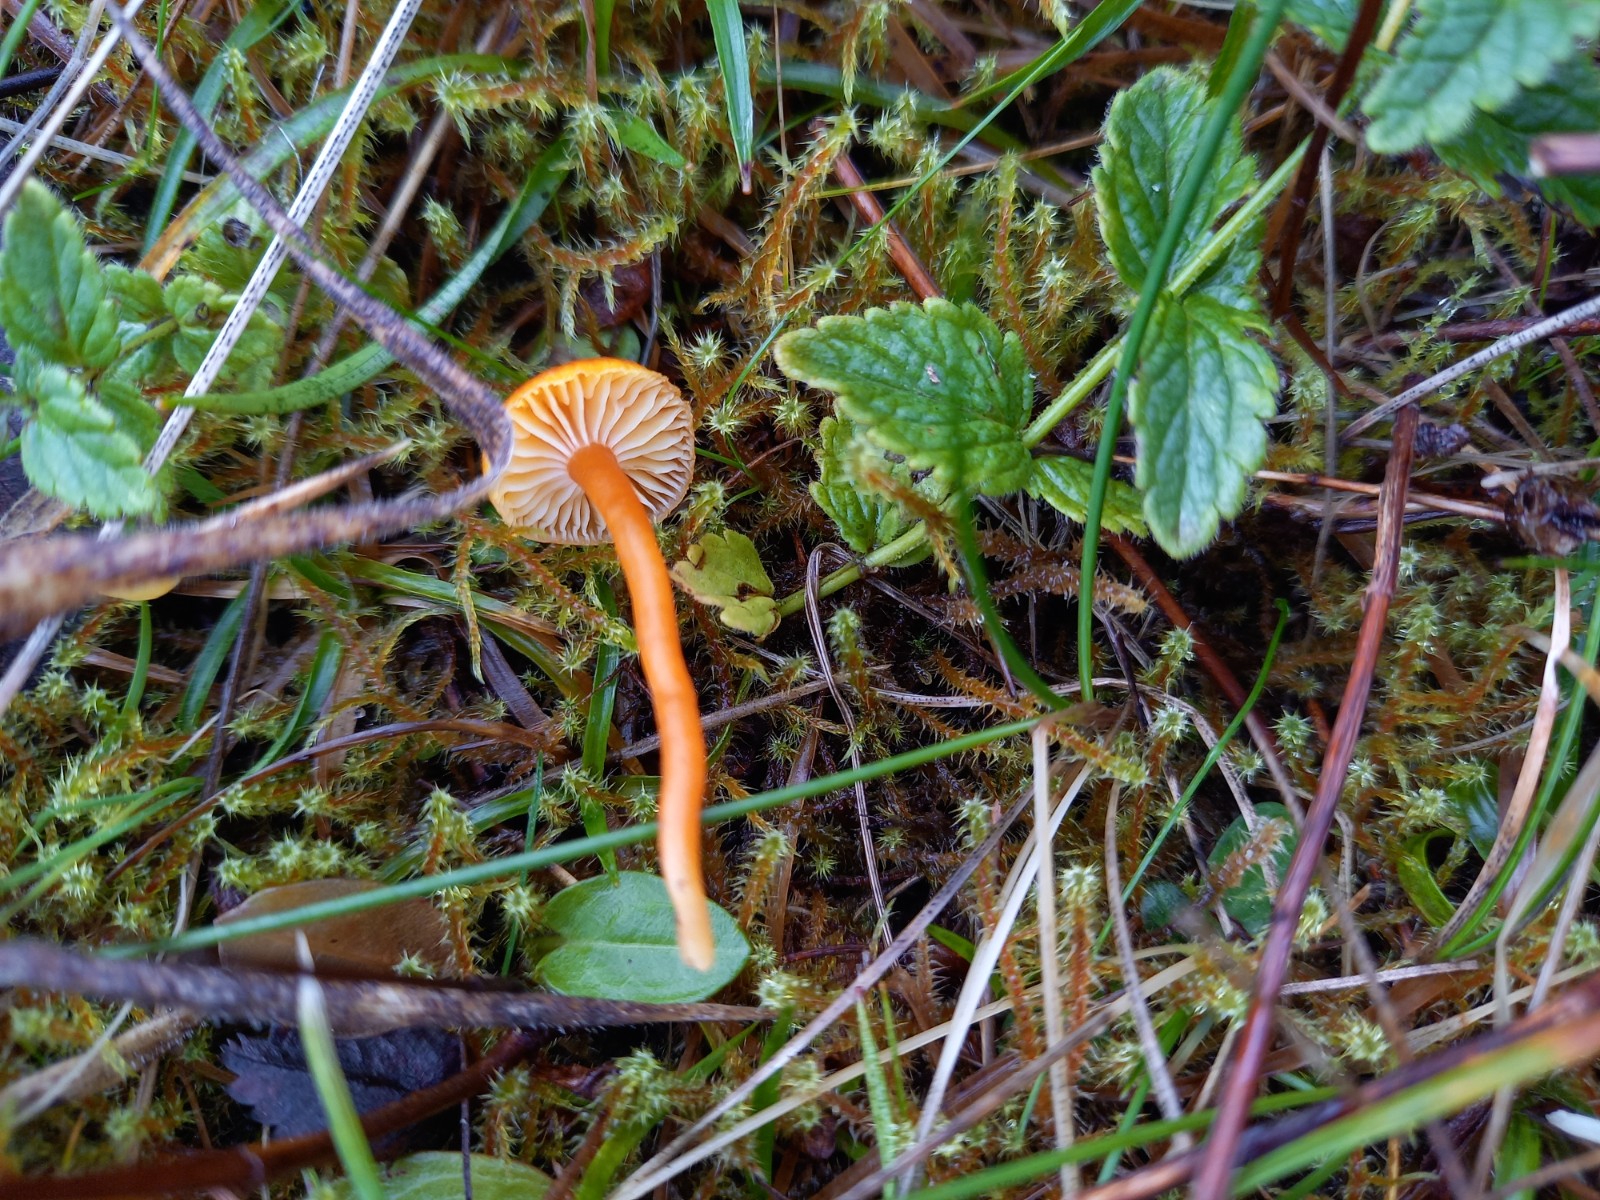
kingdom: Fungi
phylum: Basidiomycota
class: Agaricomycetes
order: Agaricales
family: Hygrophoraceae
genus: Hygrocybe
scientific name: Hygrocybe miniata
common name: mønje-vokshat
